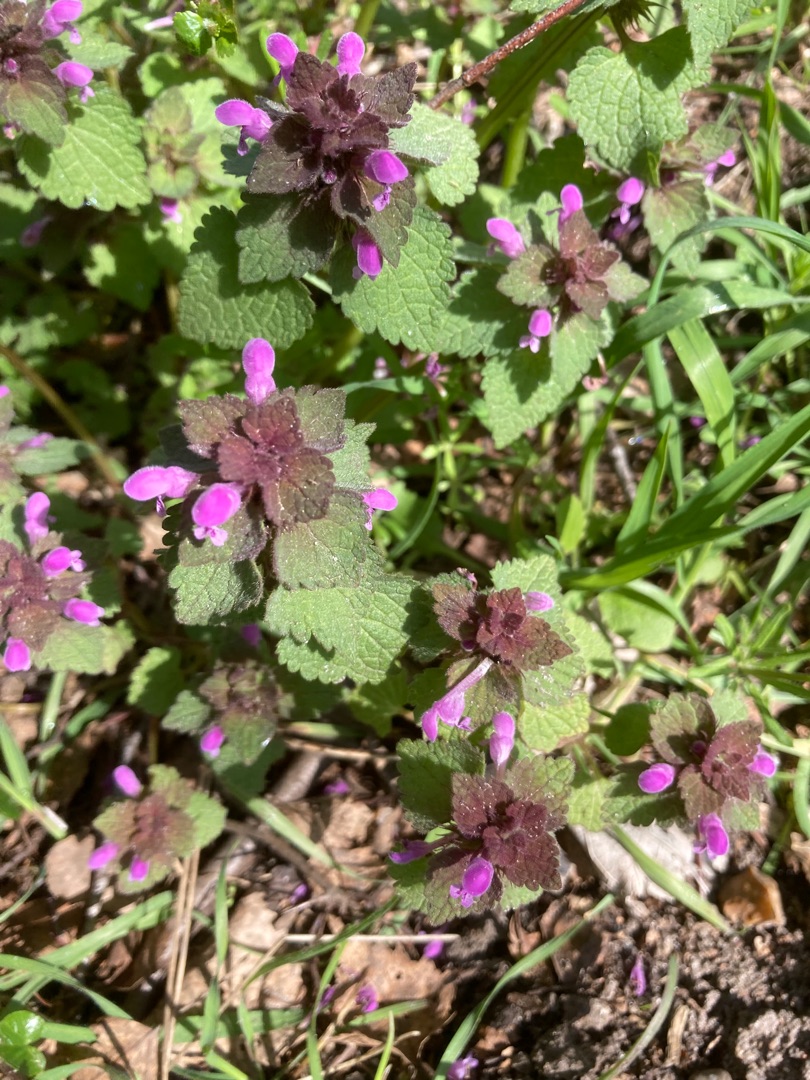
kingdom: Plantae
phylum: Tracheophyta
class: Magnoliopsida
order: Lamiales
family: Lamiaceae
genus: Lamium
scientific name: Lamium purpureum
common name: Rød tvetand
